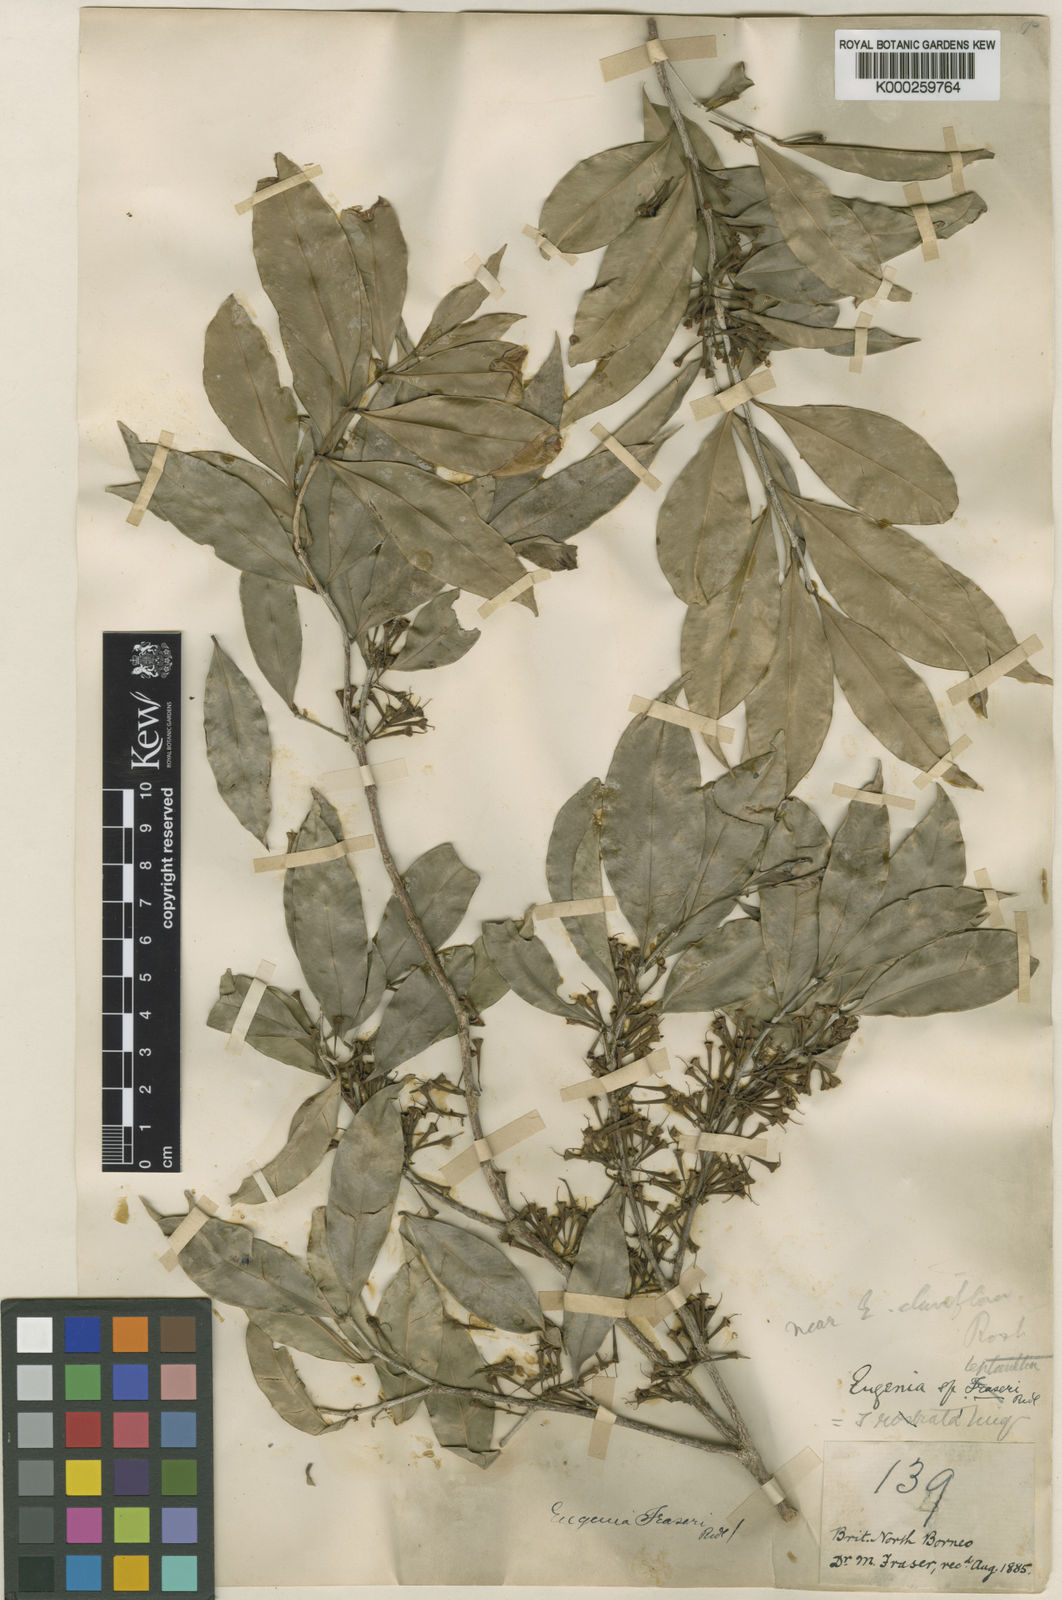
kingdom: Plantae
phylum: Tracheophyta
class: Magnoliopsida
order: Myrtales
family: Myrtaceae
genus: Syzygium
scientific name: Syzygium claviflorum
